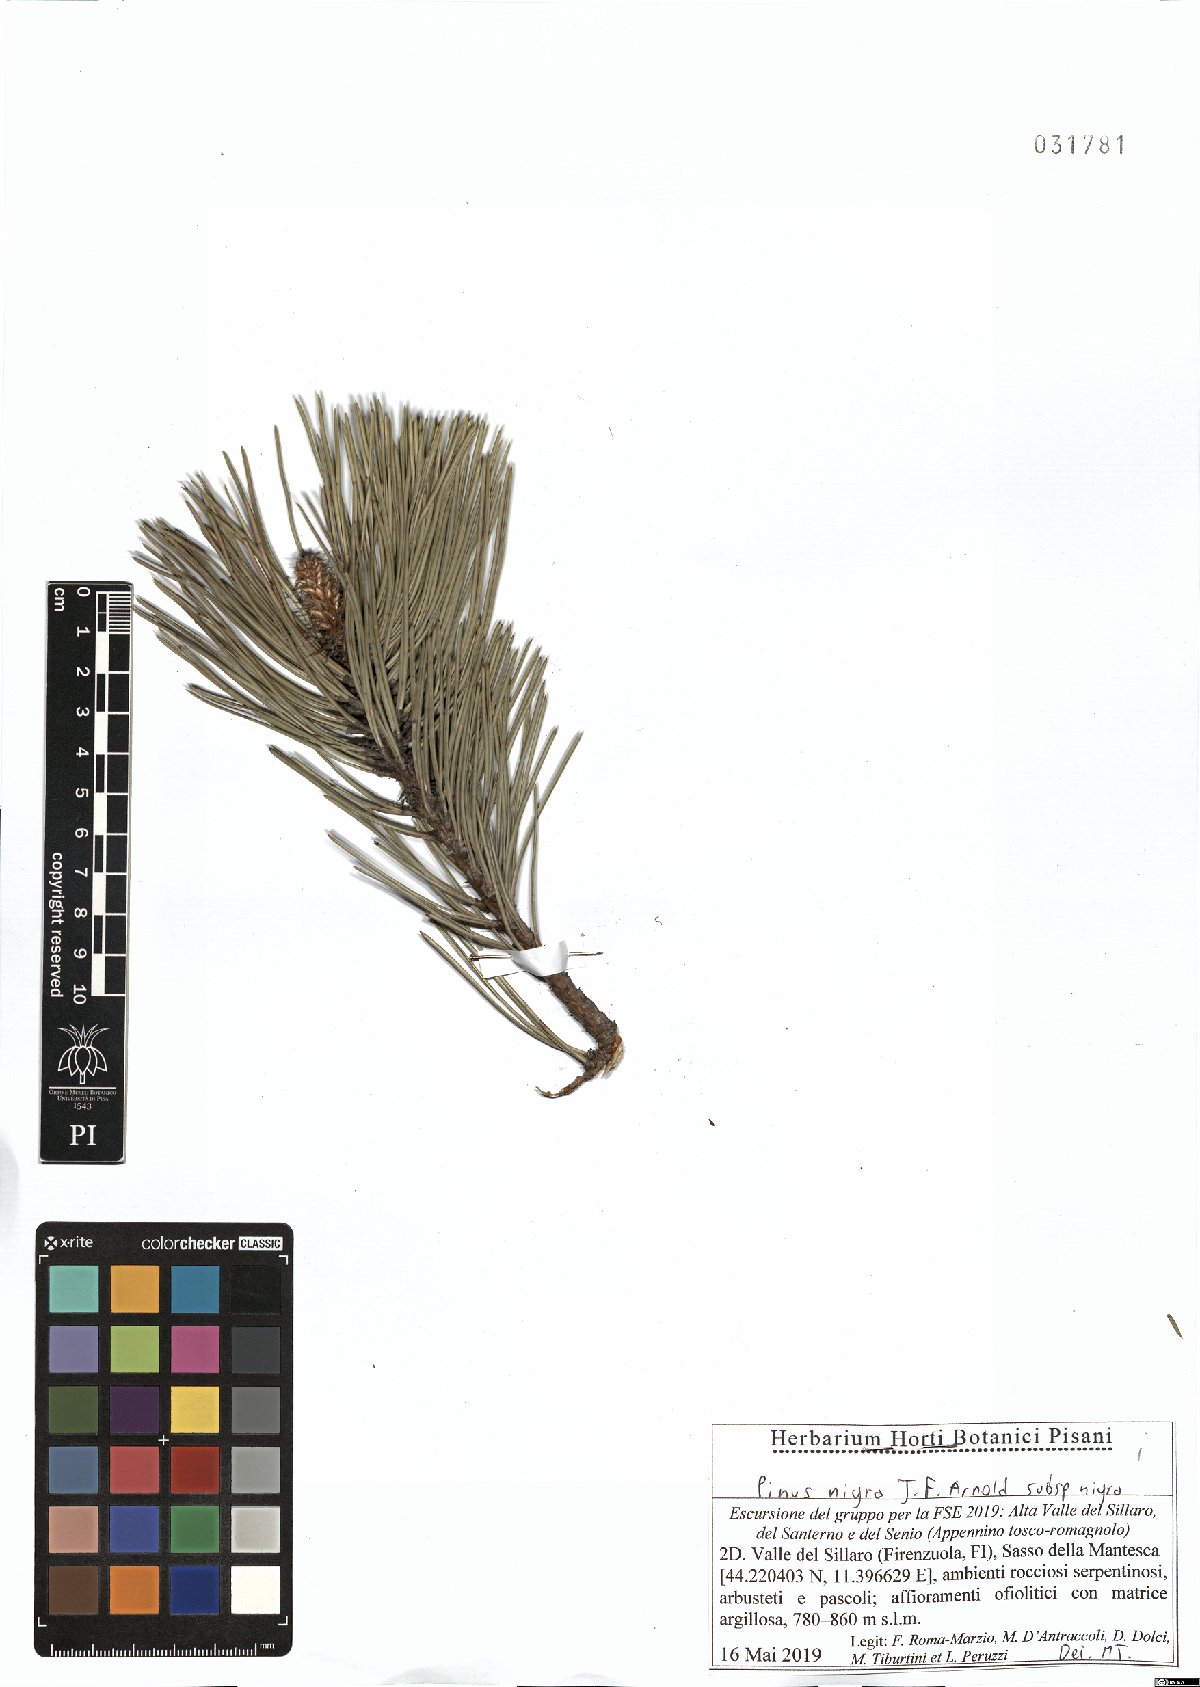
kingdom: Plantae
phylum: Tracheophyta
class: Pinopsida
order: Pinales
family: Pinaceae
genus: Pinus
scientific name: Pinus nigra
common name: Austrian pine
